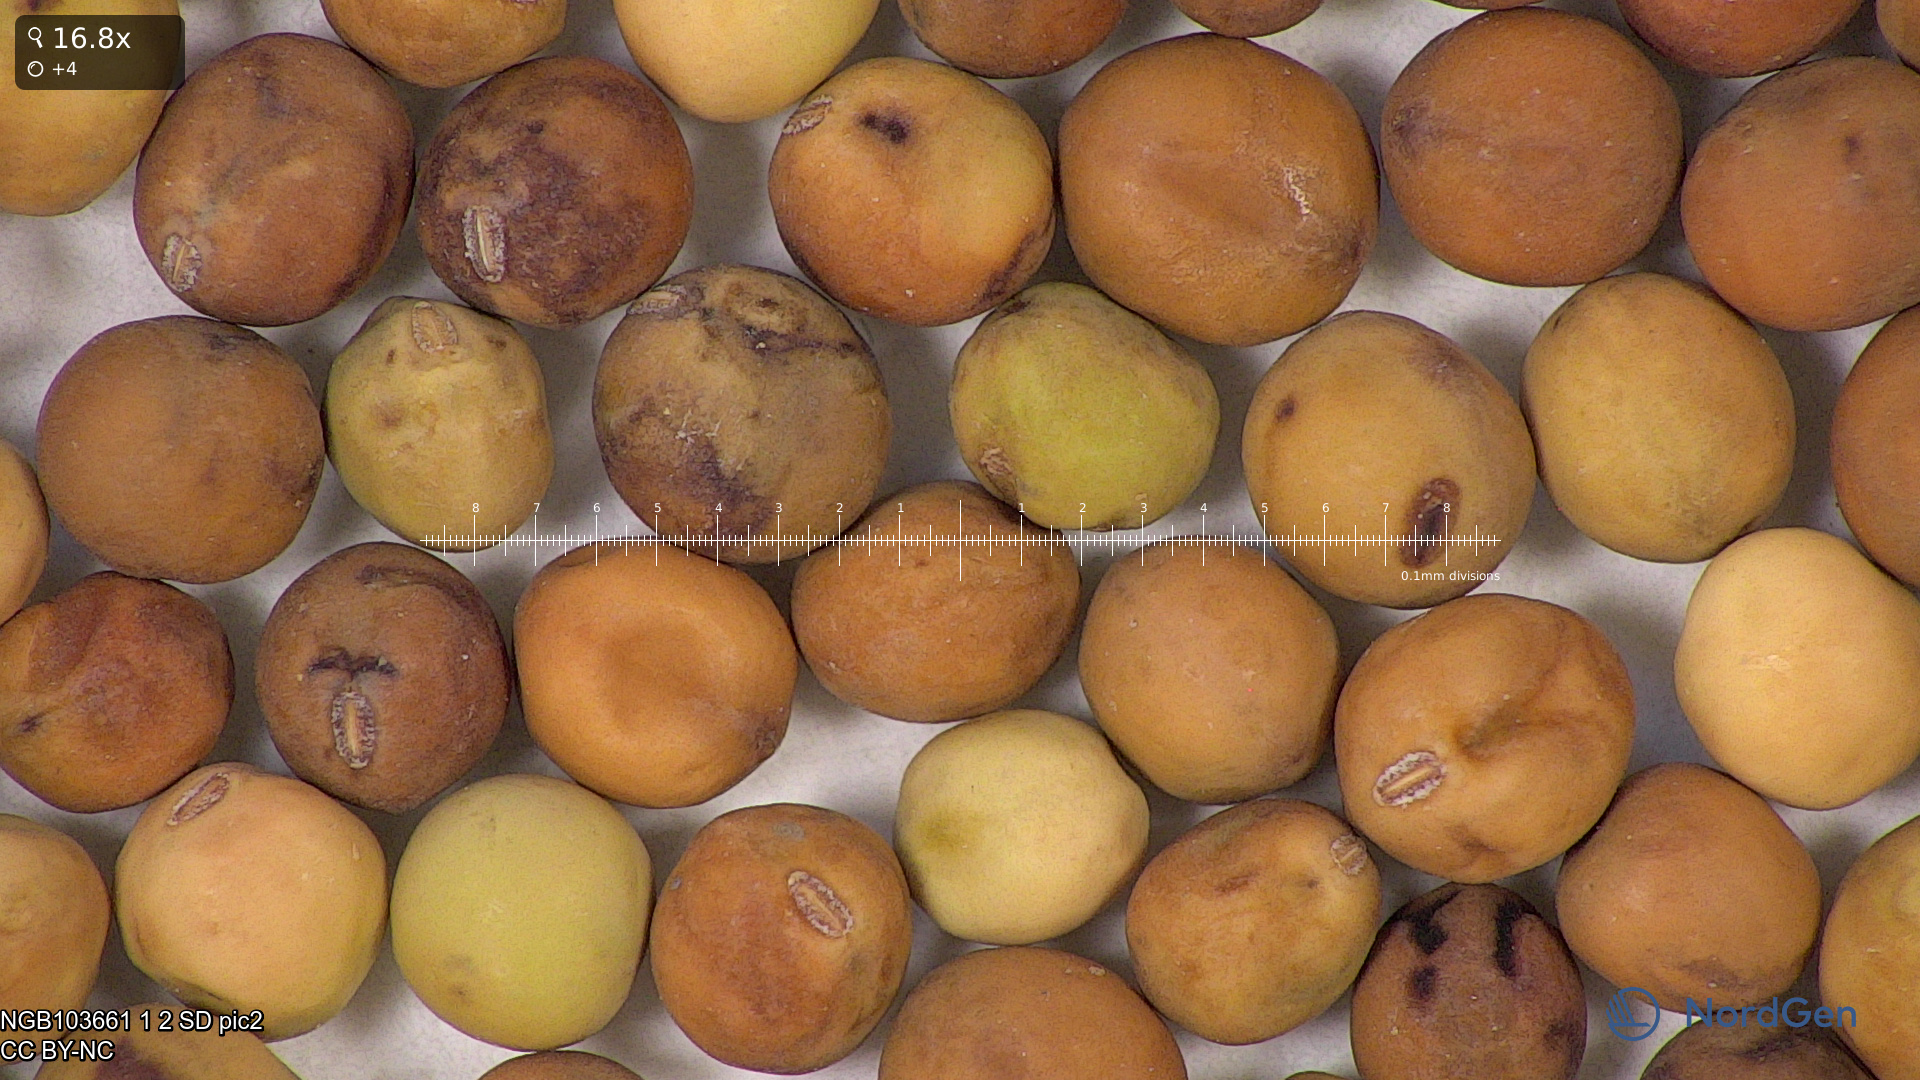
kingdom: Plantae
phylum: Tracheophyta
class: Magnoliopsida
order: Fabales
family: Fabaceae
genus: Lathyrus
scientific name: Lathyrus oleraceus
